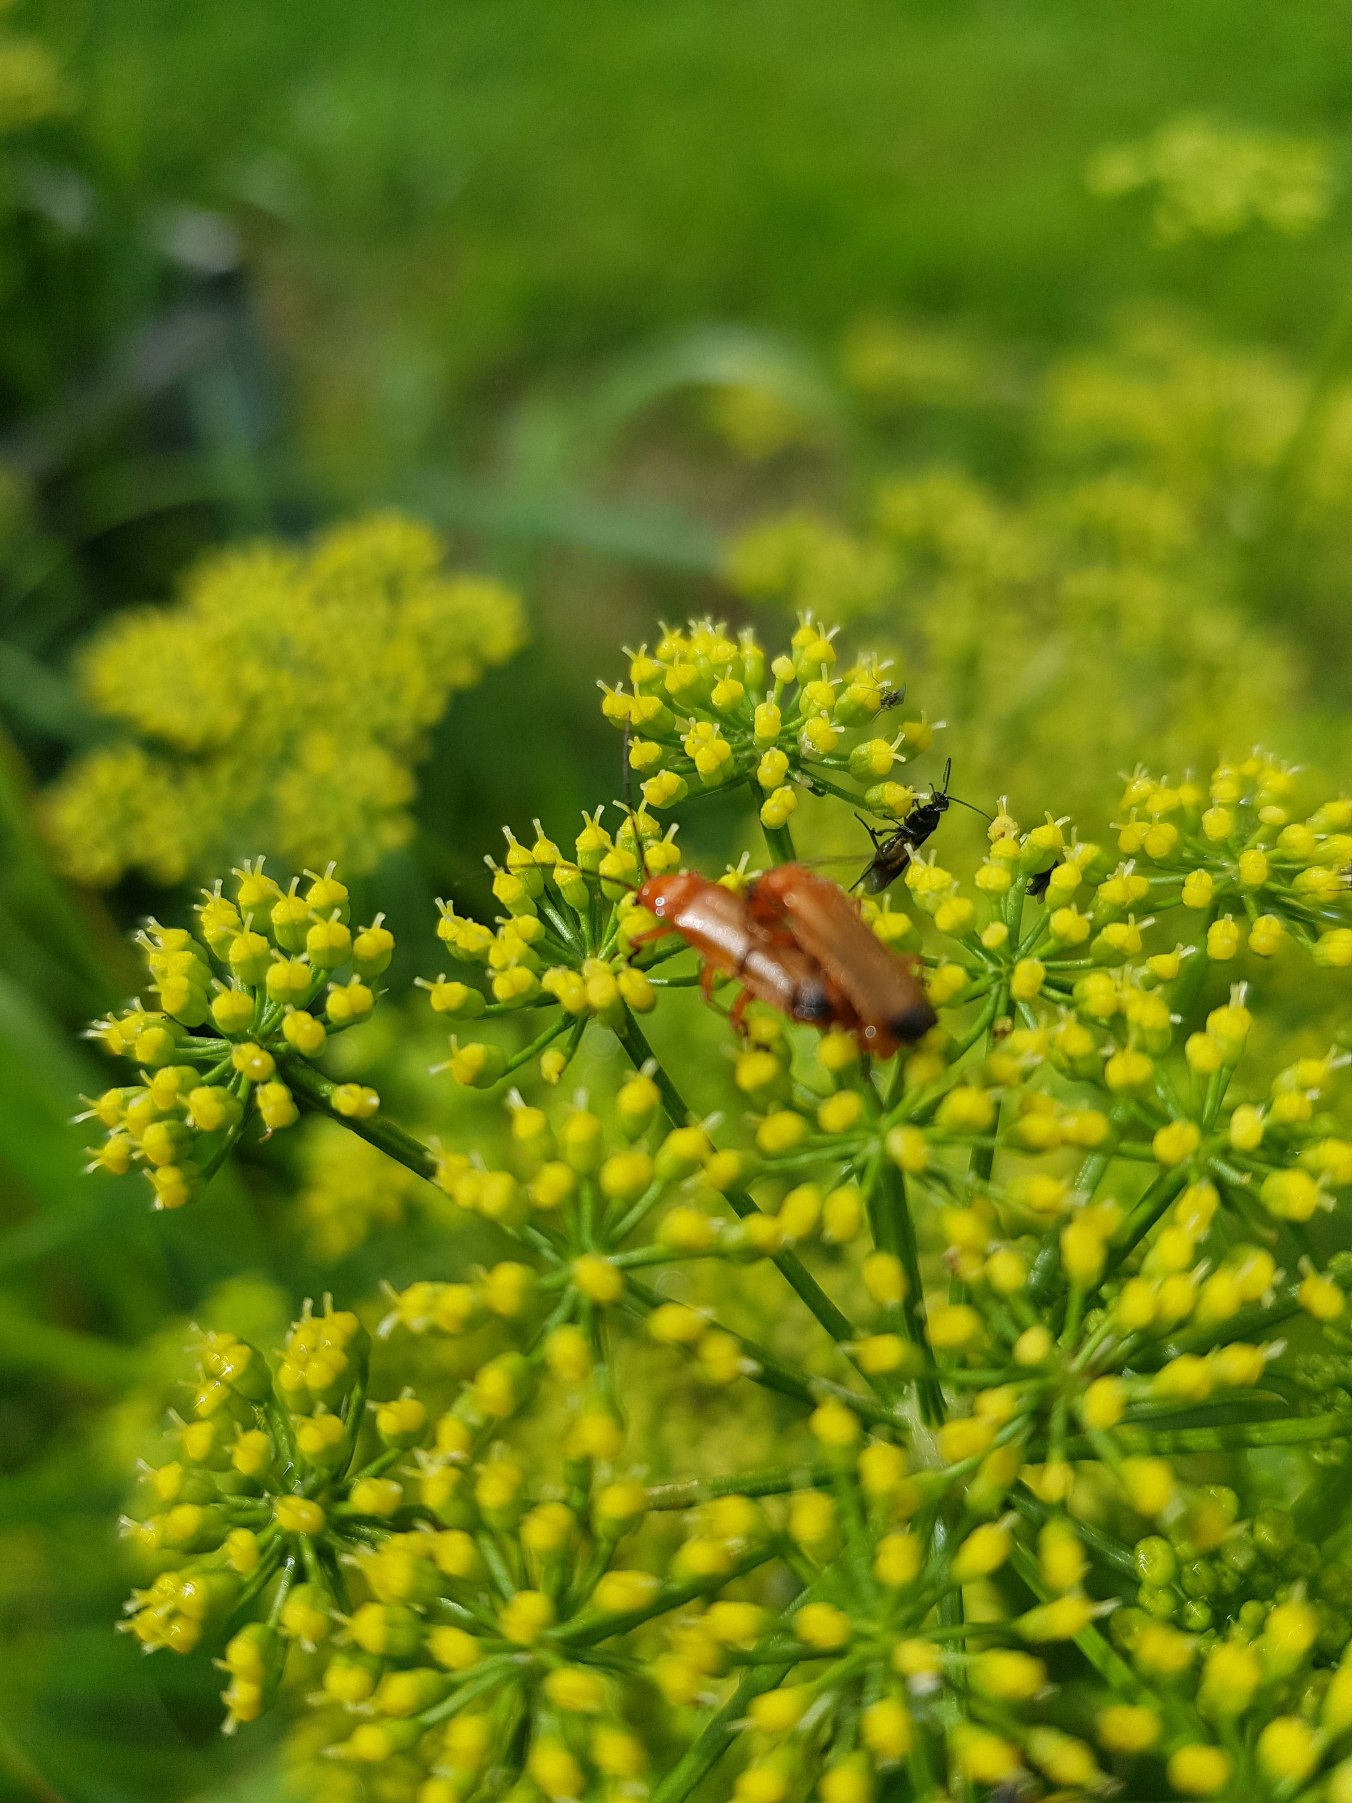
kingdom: Animalia
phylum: Arthropoda
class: Insecta
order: Coleoptera
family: Cantharidae
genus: Rhagonycha
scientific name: Rhagonycha fulva
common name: Præstebille
